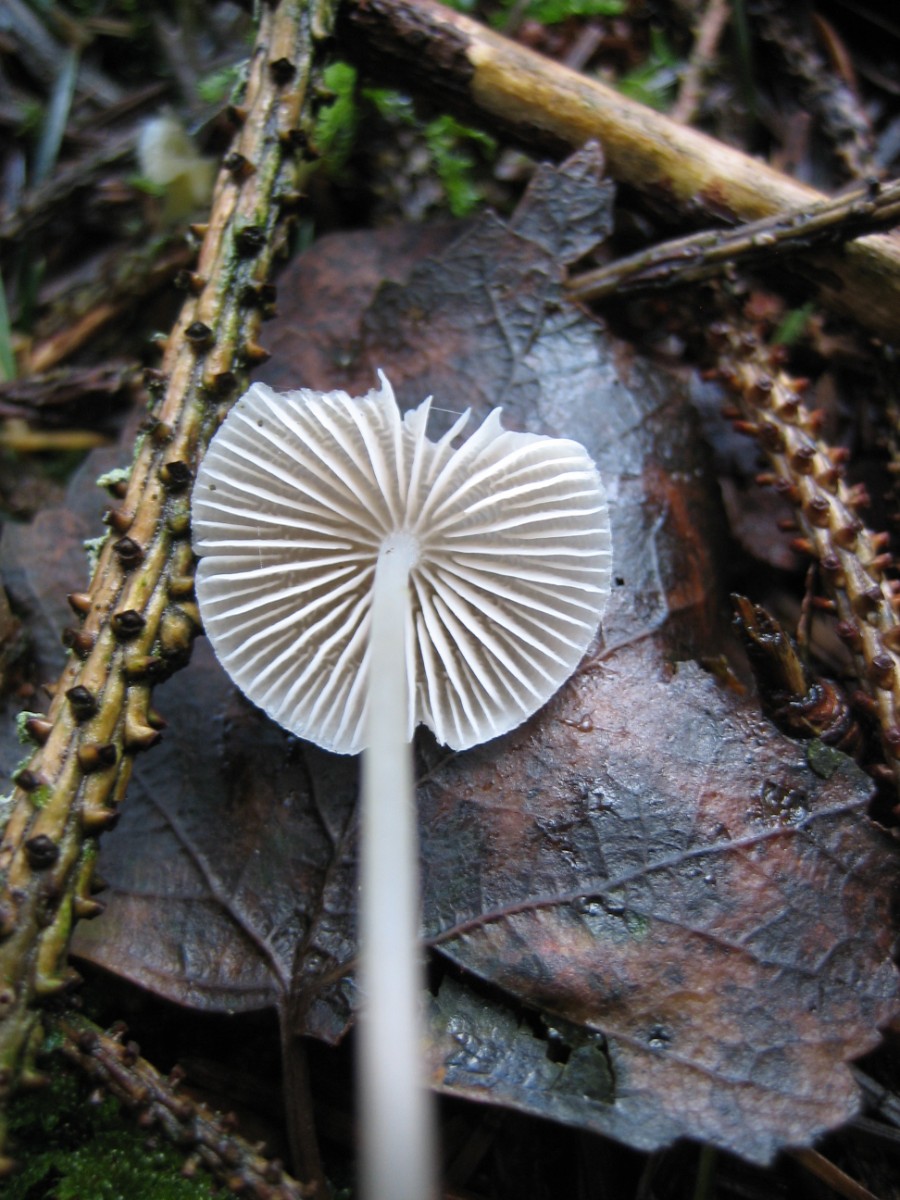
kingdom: Fungi
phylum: Basidiomycota
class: Agaricomycetes
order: Agaricales
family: Mycenaceae
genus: Mycena
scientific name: Mycena epipterygia
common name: gulstokket huesvamp
